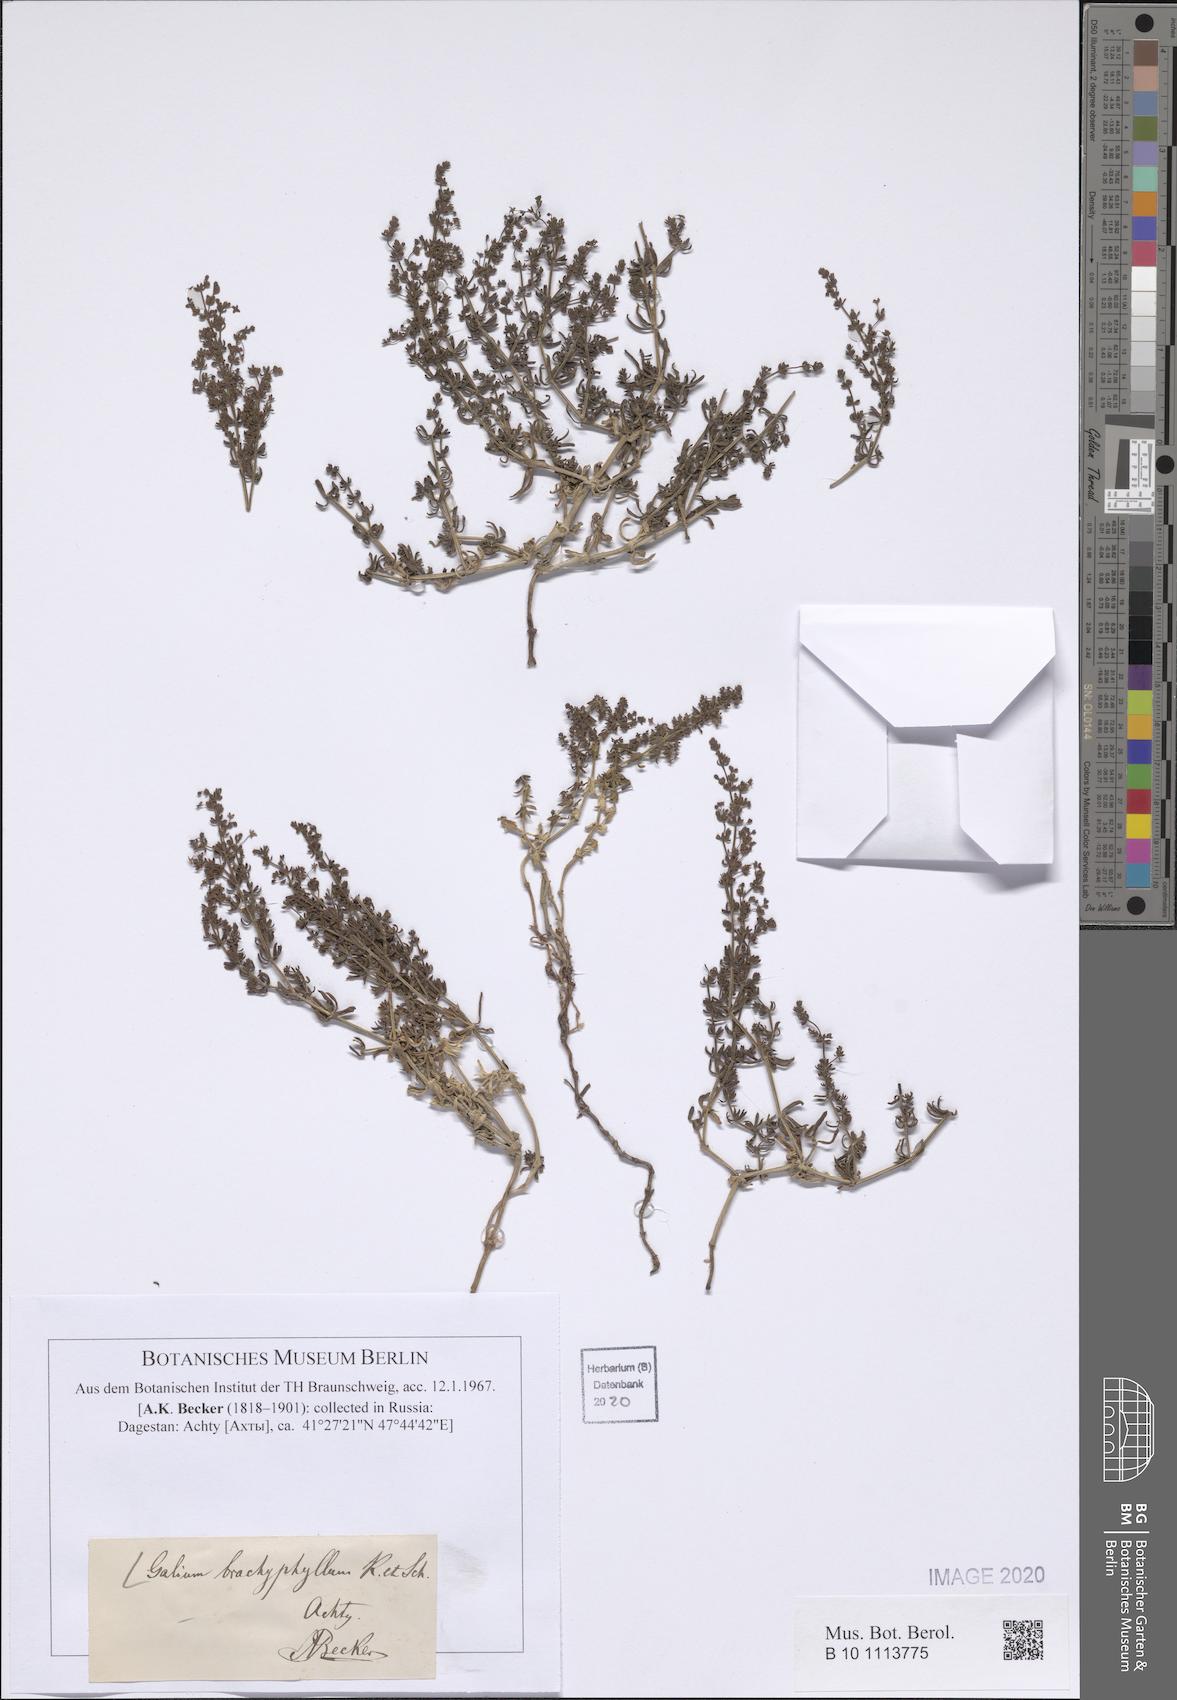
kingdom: Plantae
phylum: Tracheophyta
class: Magnoliopsida
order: Gentianales
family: Rubiaceae
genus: Galium
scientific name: Galium brachyphyllum
